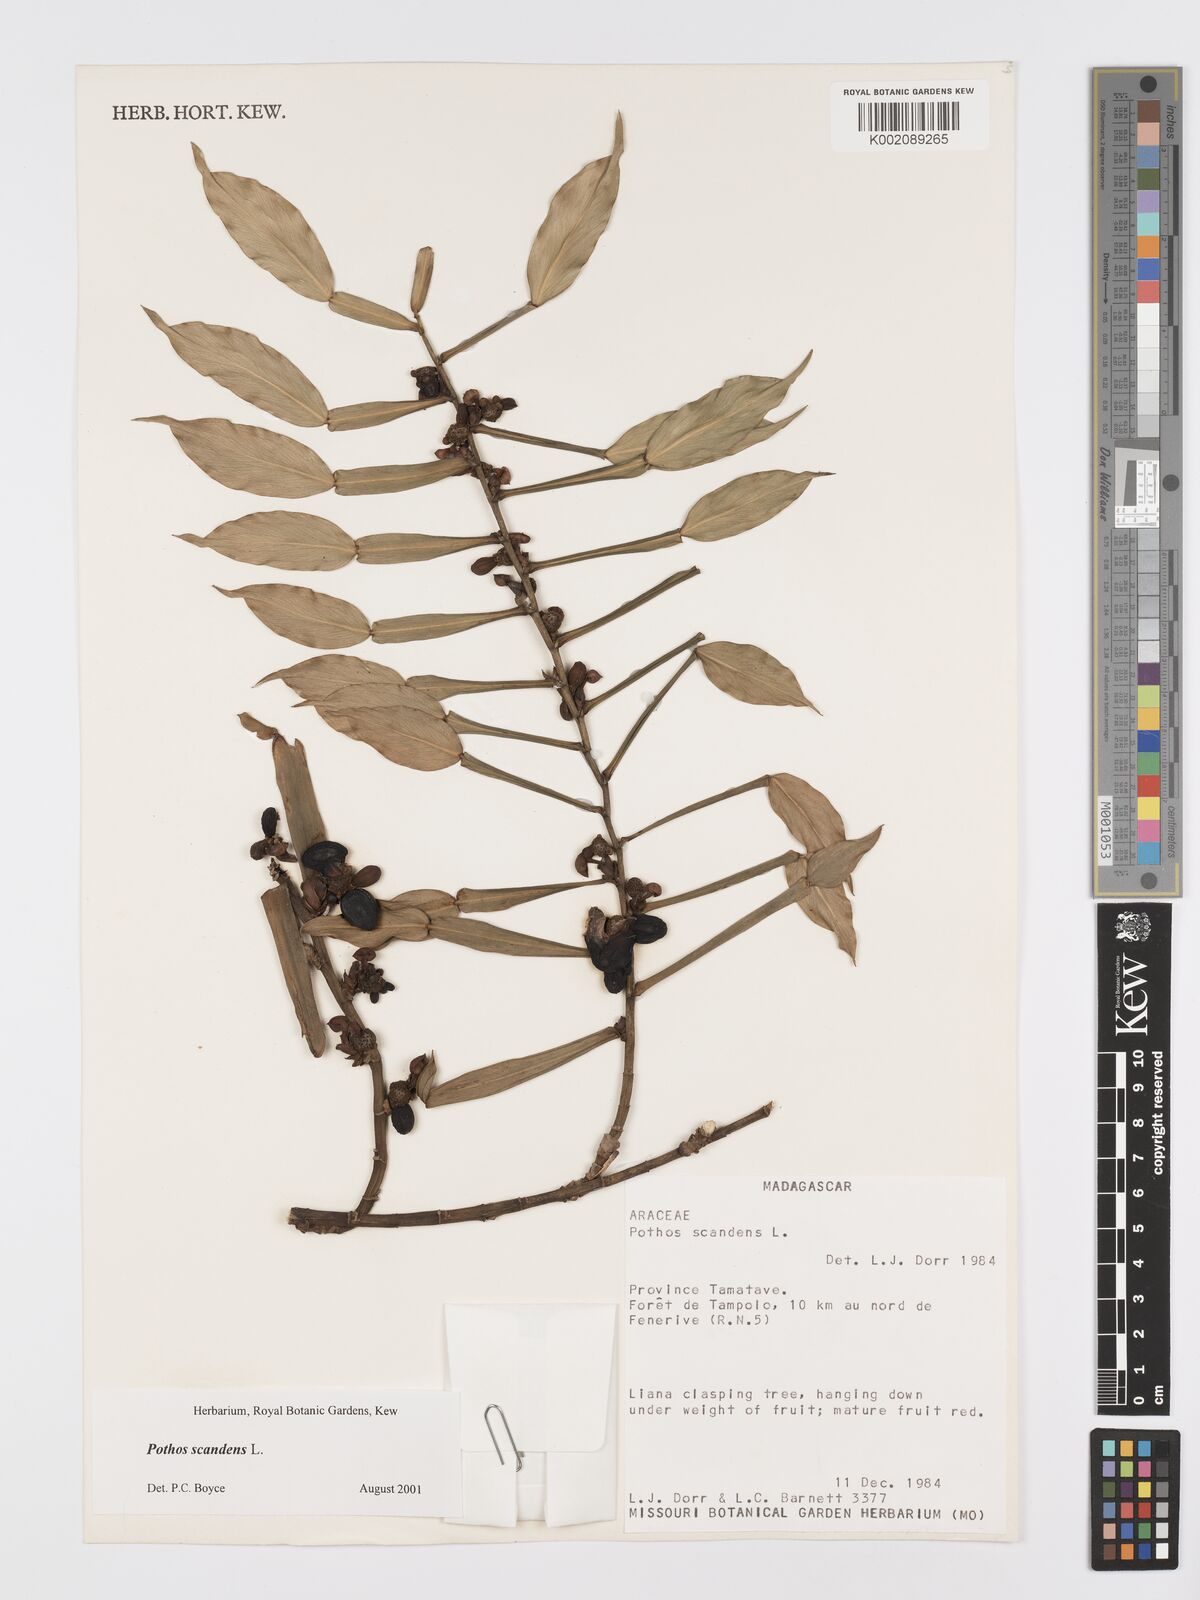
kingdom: Plantae
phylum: Tracheophyta
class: Liliopsida
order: Alismatales
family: Araceae
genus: Pothos
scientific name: Pothos scandens
